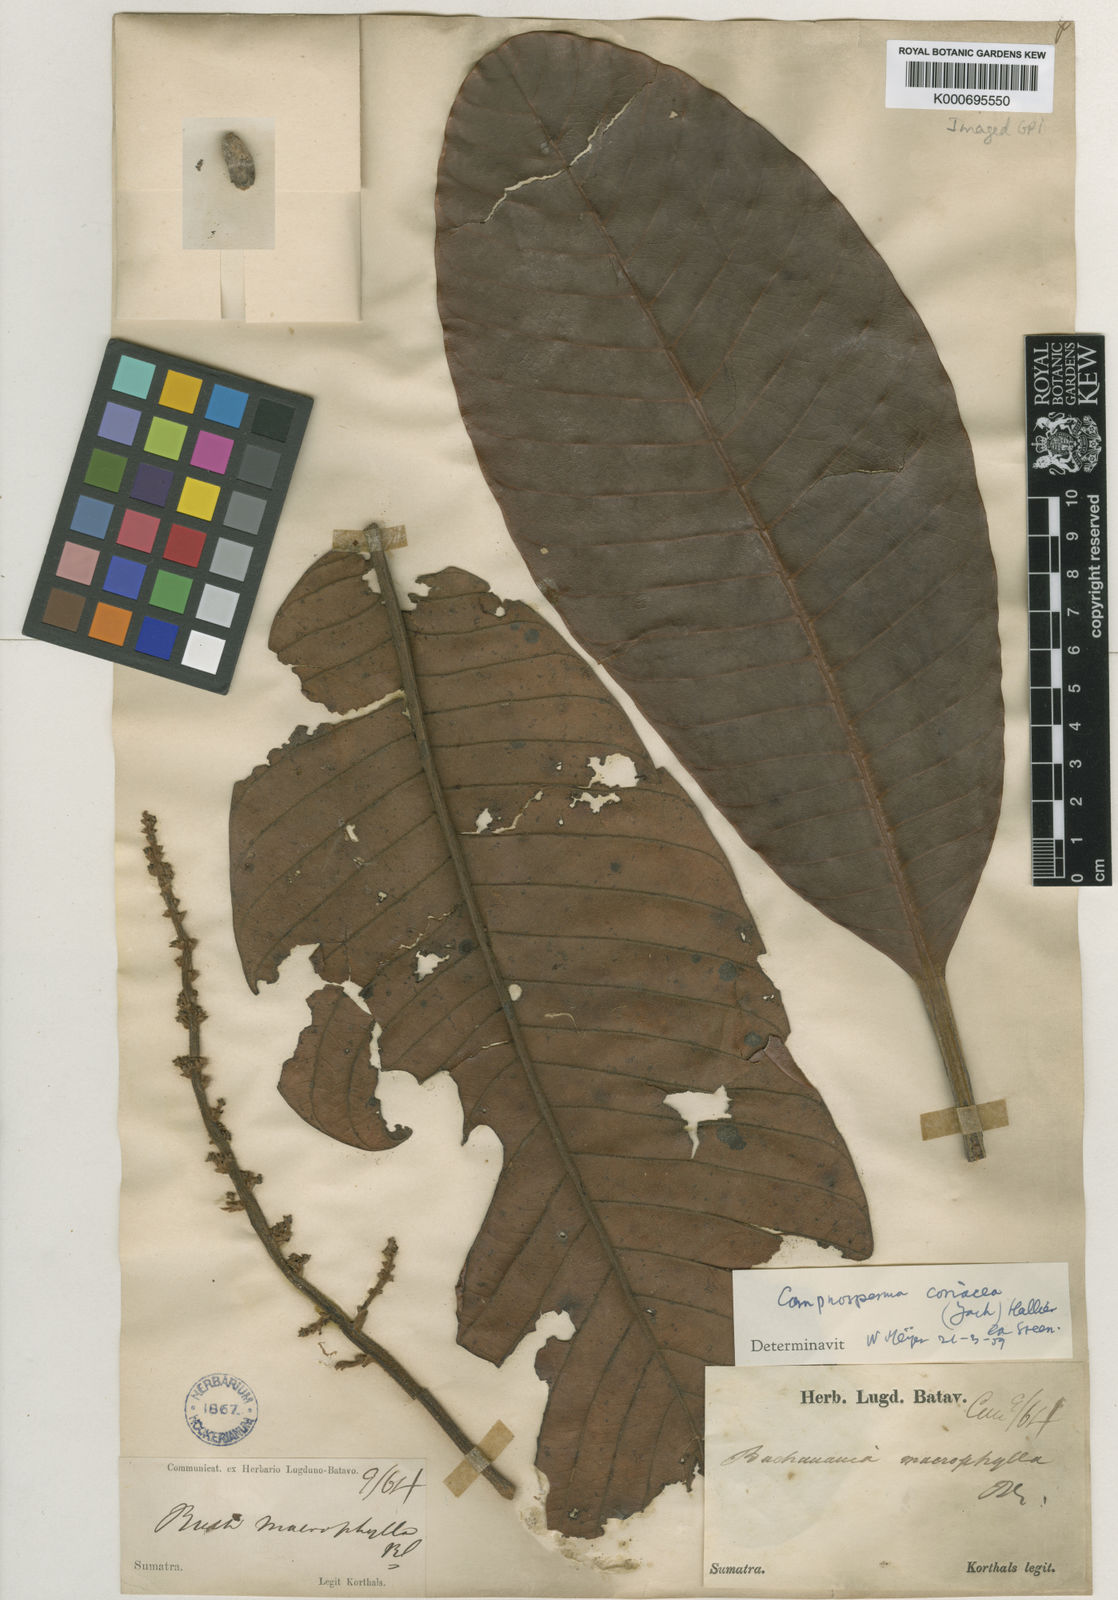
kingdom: Plantae
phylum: Tracheophyta
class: Magnoliopsida
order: Sapindales
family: Anacardiaceae
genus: Campnosperma
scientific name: Campnosperma
